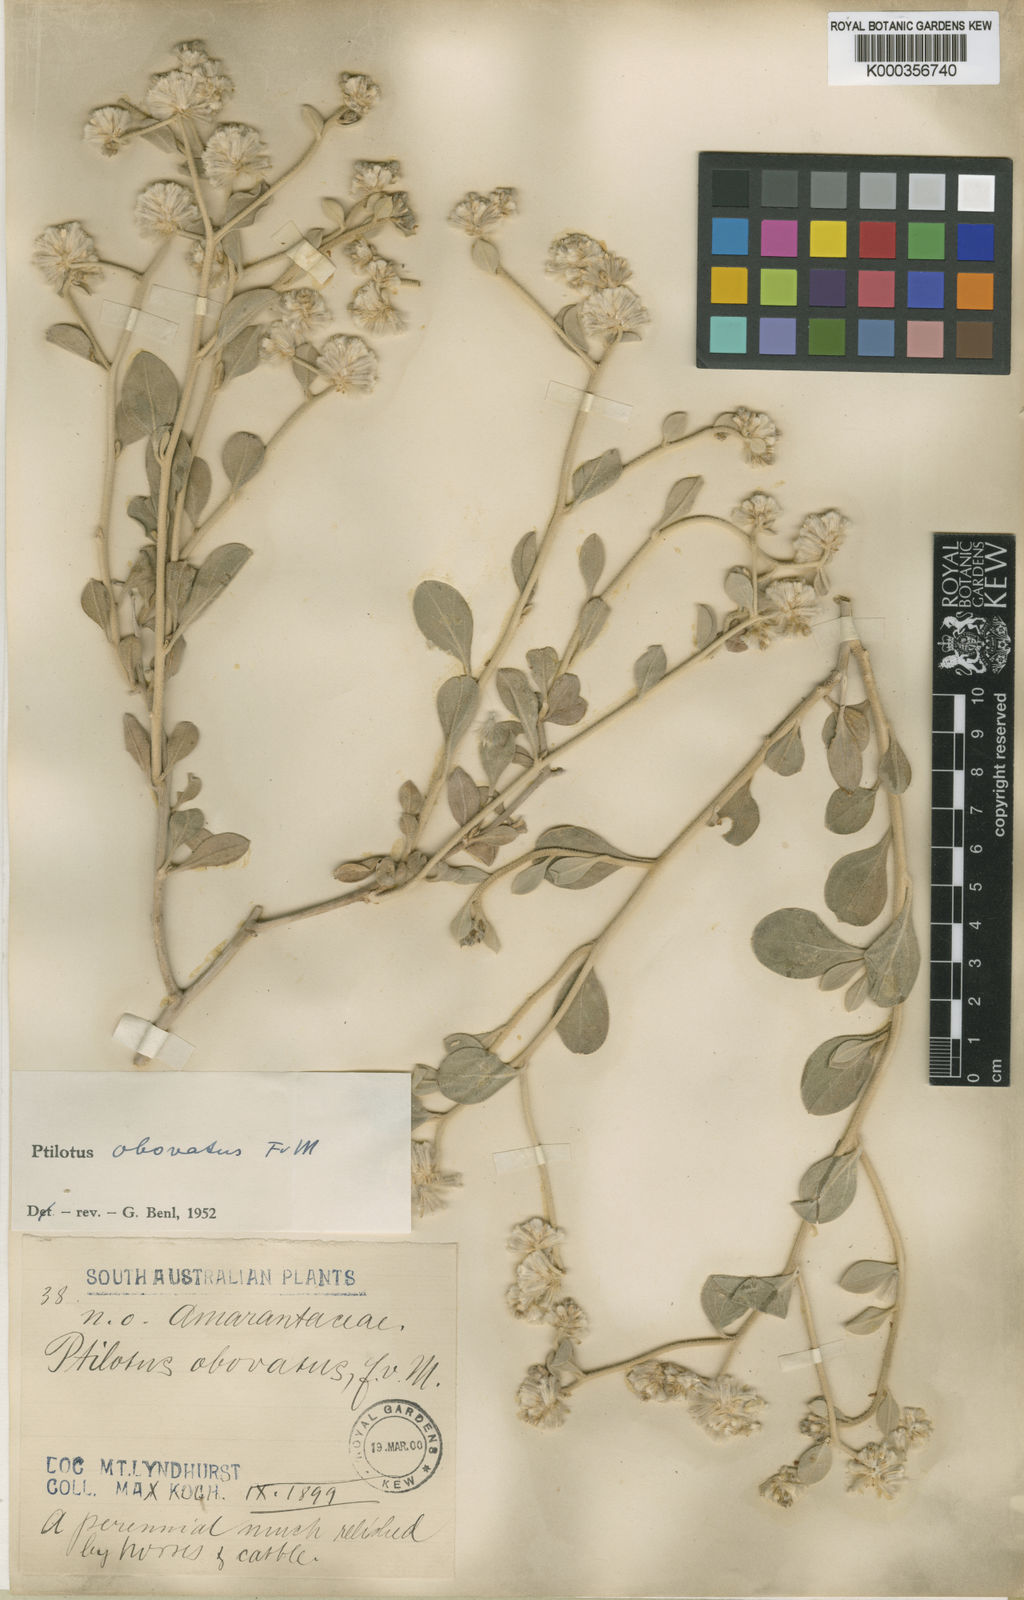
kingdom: Plantae
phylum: Tracheophyta
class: Magnoliopsida
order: Caryophyllales
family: Amaranthaceae
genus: Ptilotus
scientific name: Ptilotus obovatus
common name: Cottonbush
